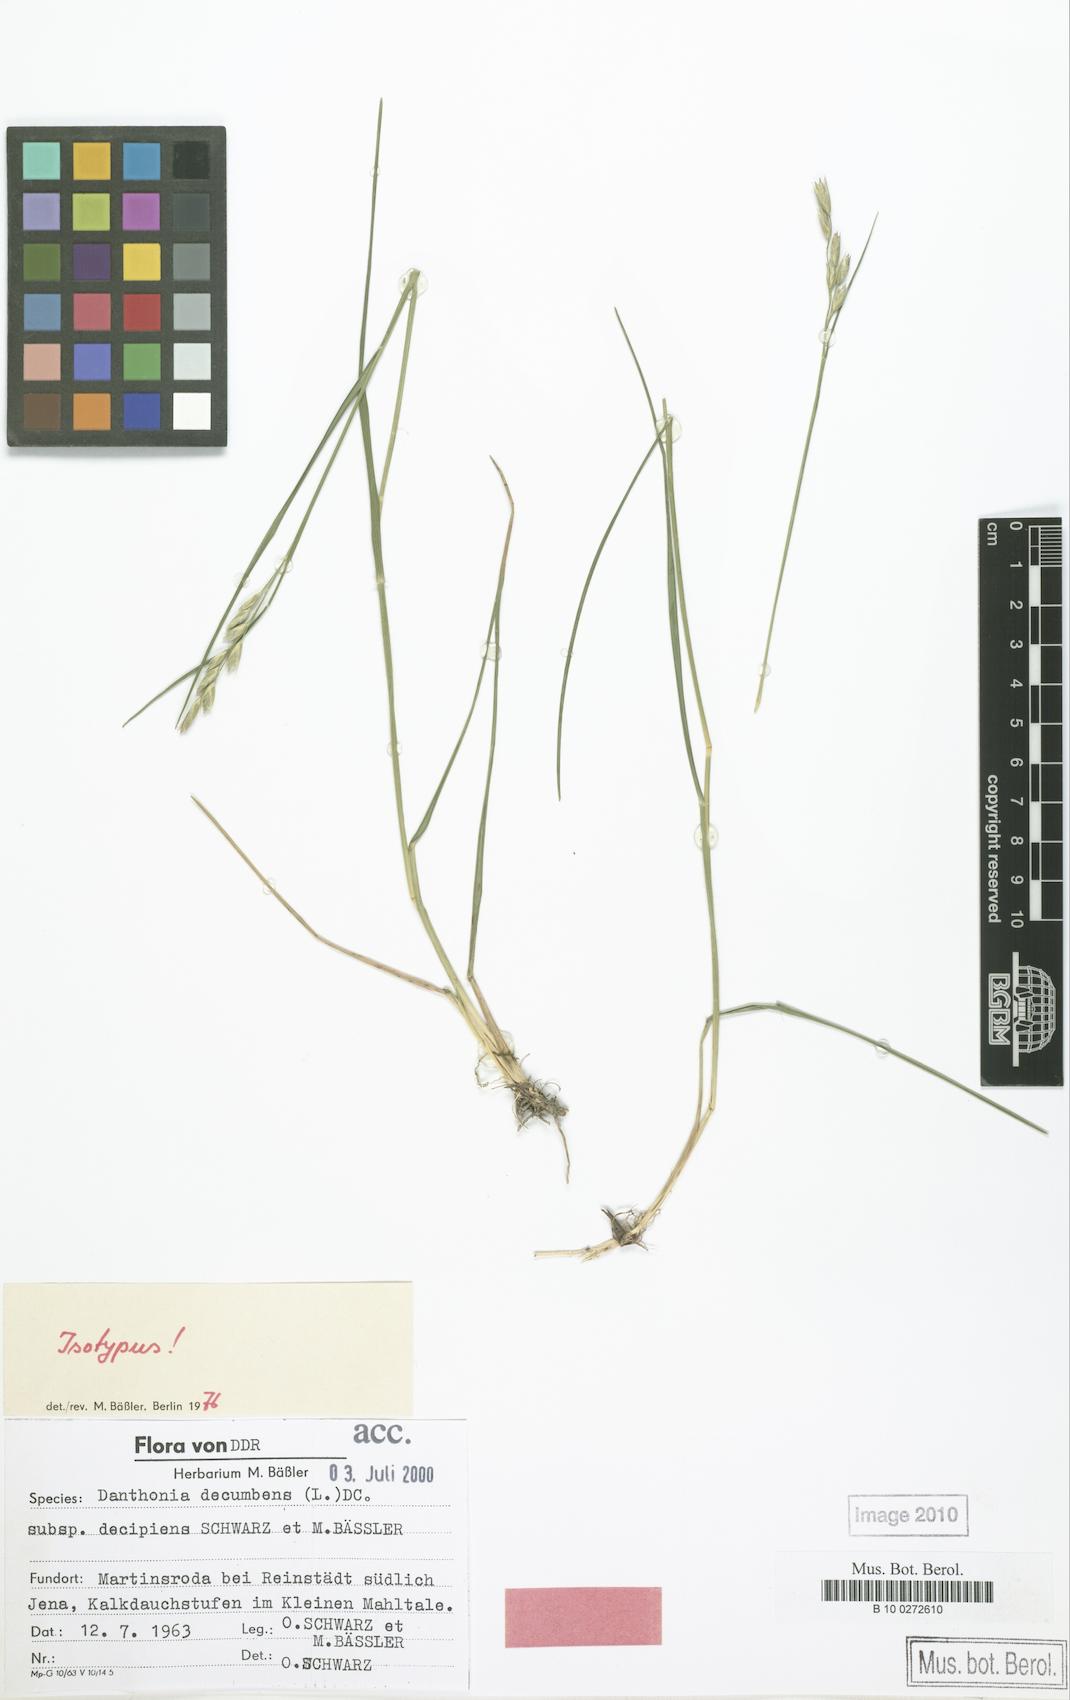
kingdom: Plantae
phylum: Tracheophyta
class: Liliopsida
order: Poales
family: Poaceae
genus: Danthonia
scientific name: Danthonia decumbens
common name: Common heathgrass
